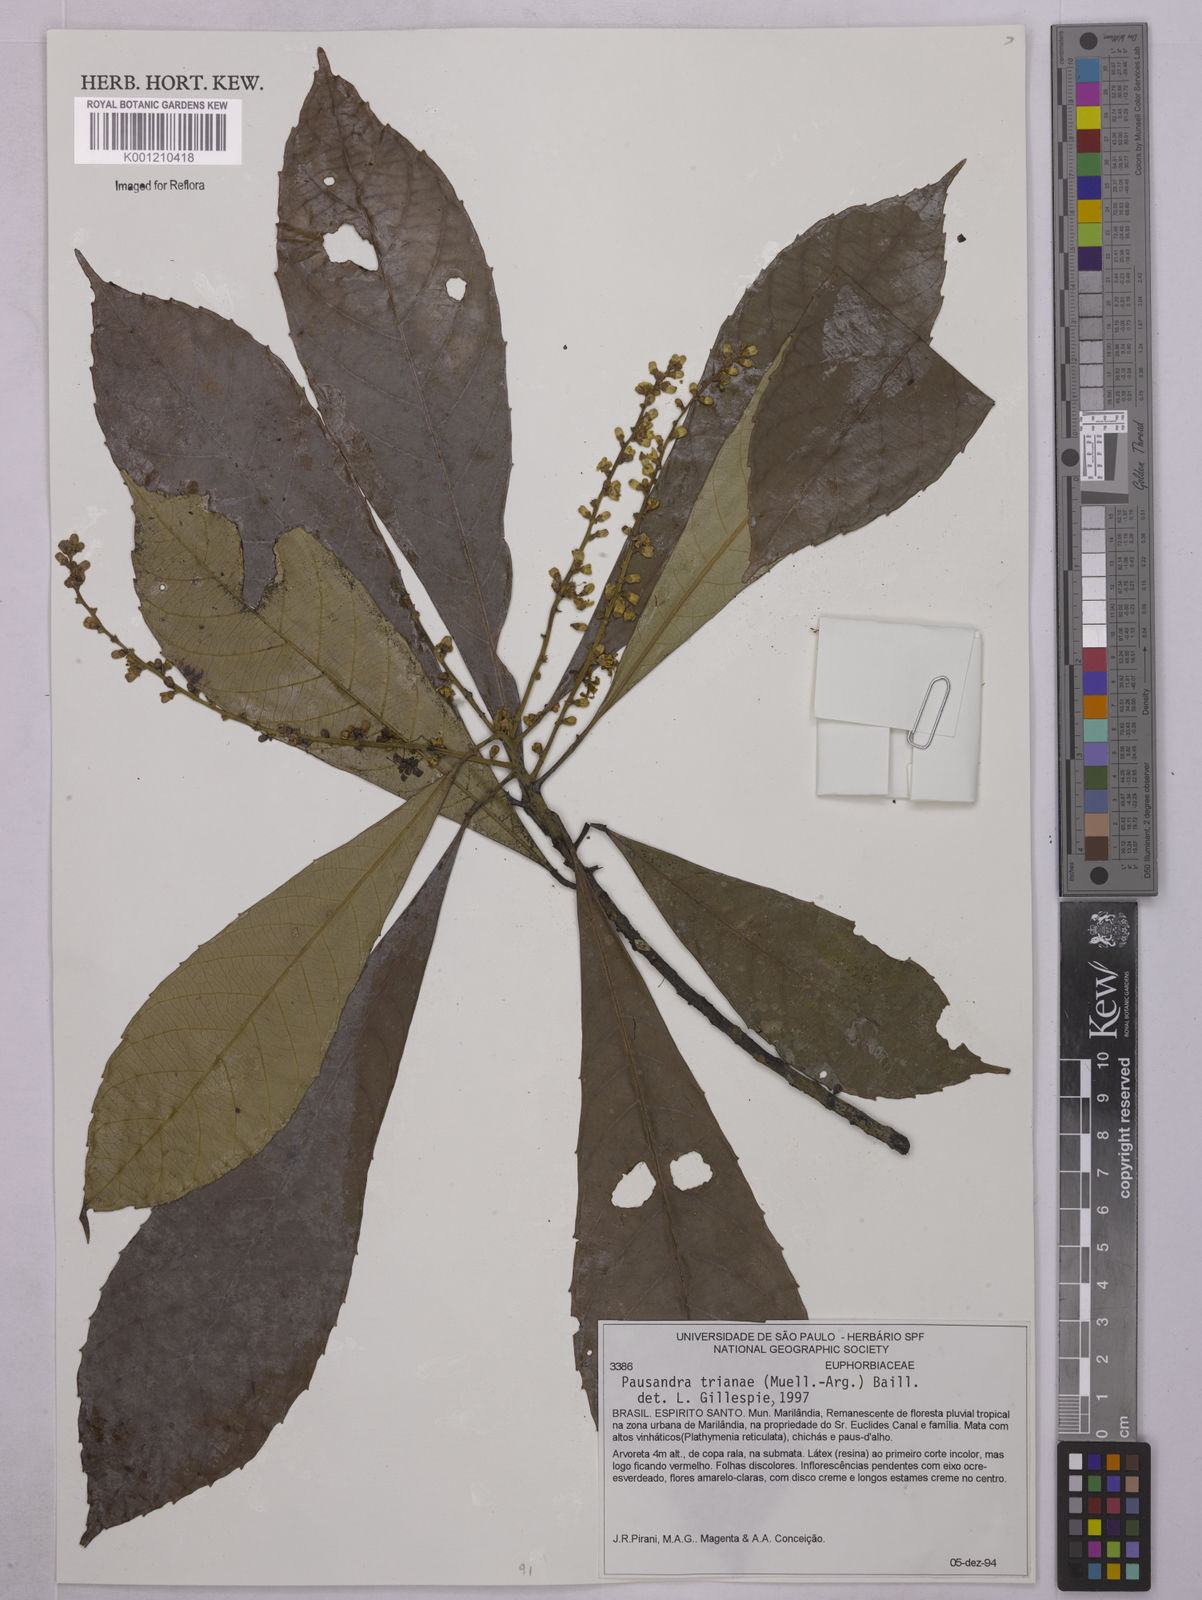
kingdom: Plantae
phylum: Tracheophyta
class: Magnoliopsida
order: Malpighiales
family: Euphorbiaceae
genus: Pausandra
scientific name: Pausandra
